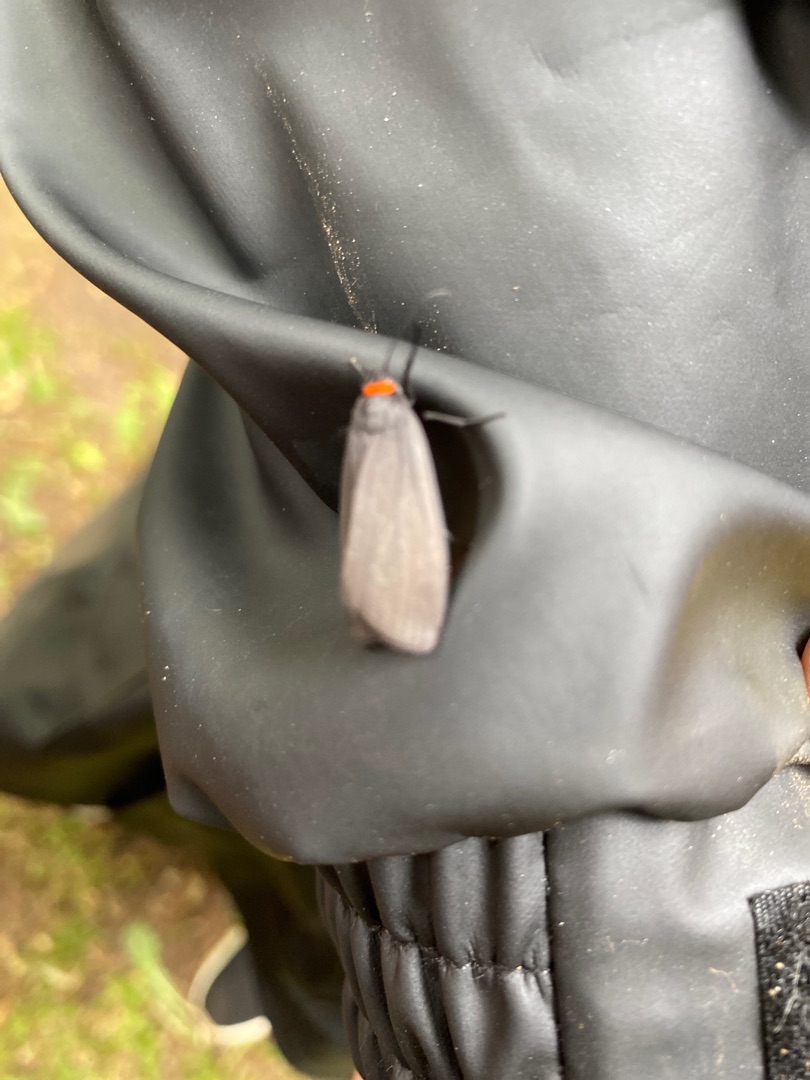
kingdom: Animalia
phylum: Arthropoda
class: Insecta
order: Lepidoptera
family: Erebidae
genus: Atolmis
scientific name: Atolmis rubricollis
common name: Blodnakke
